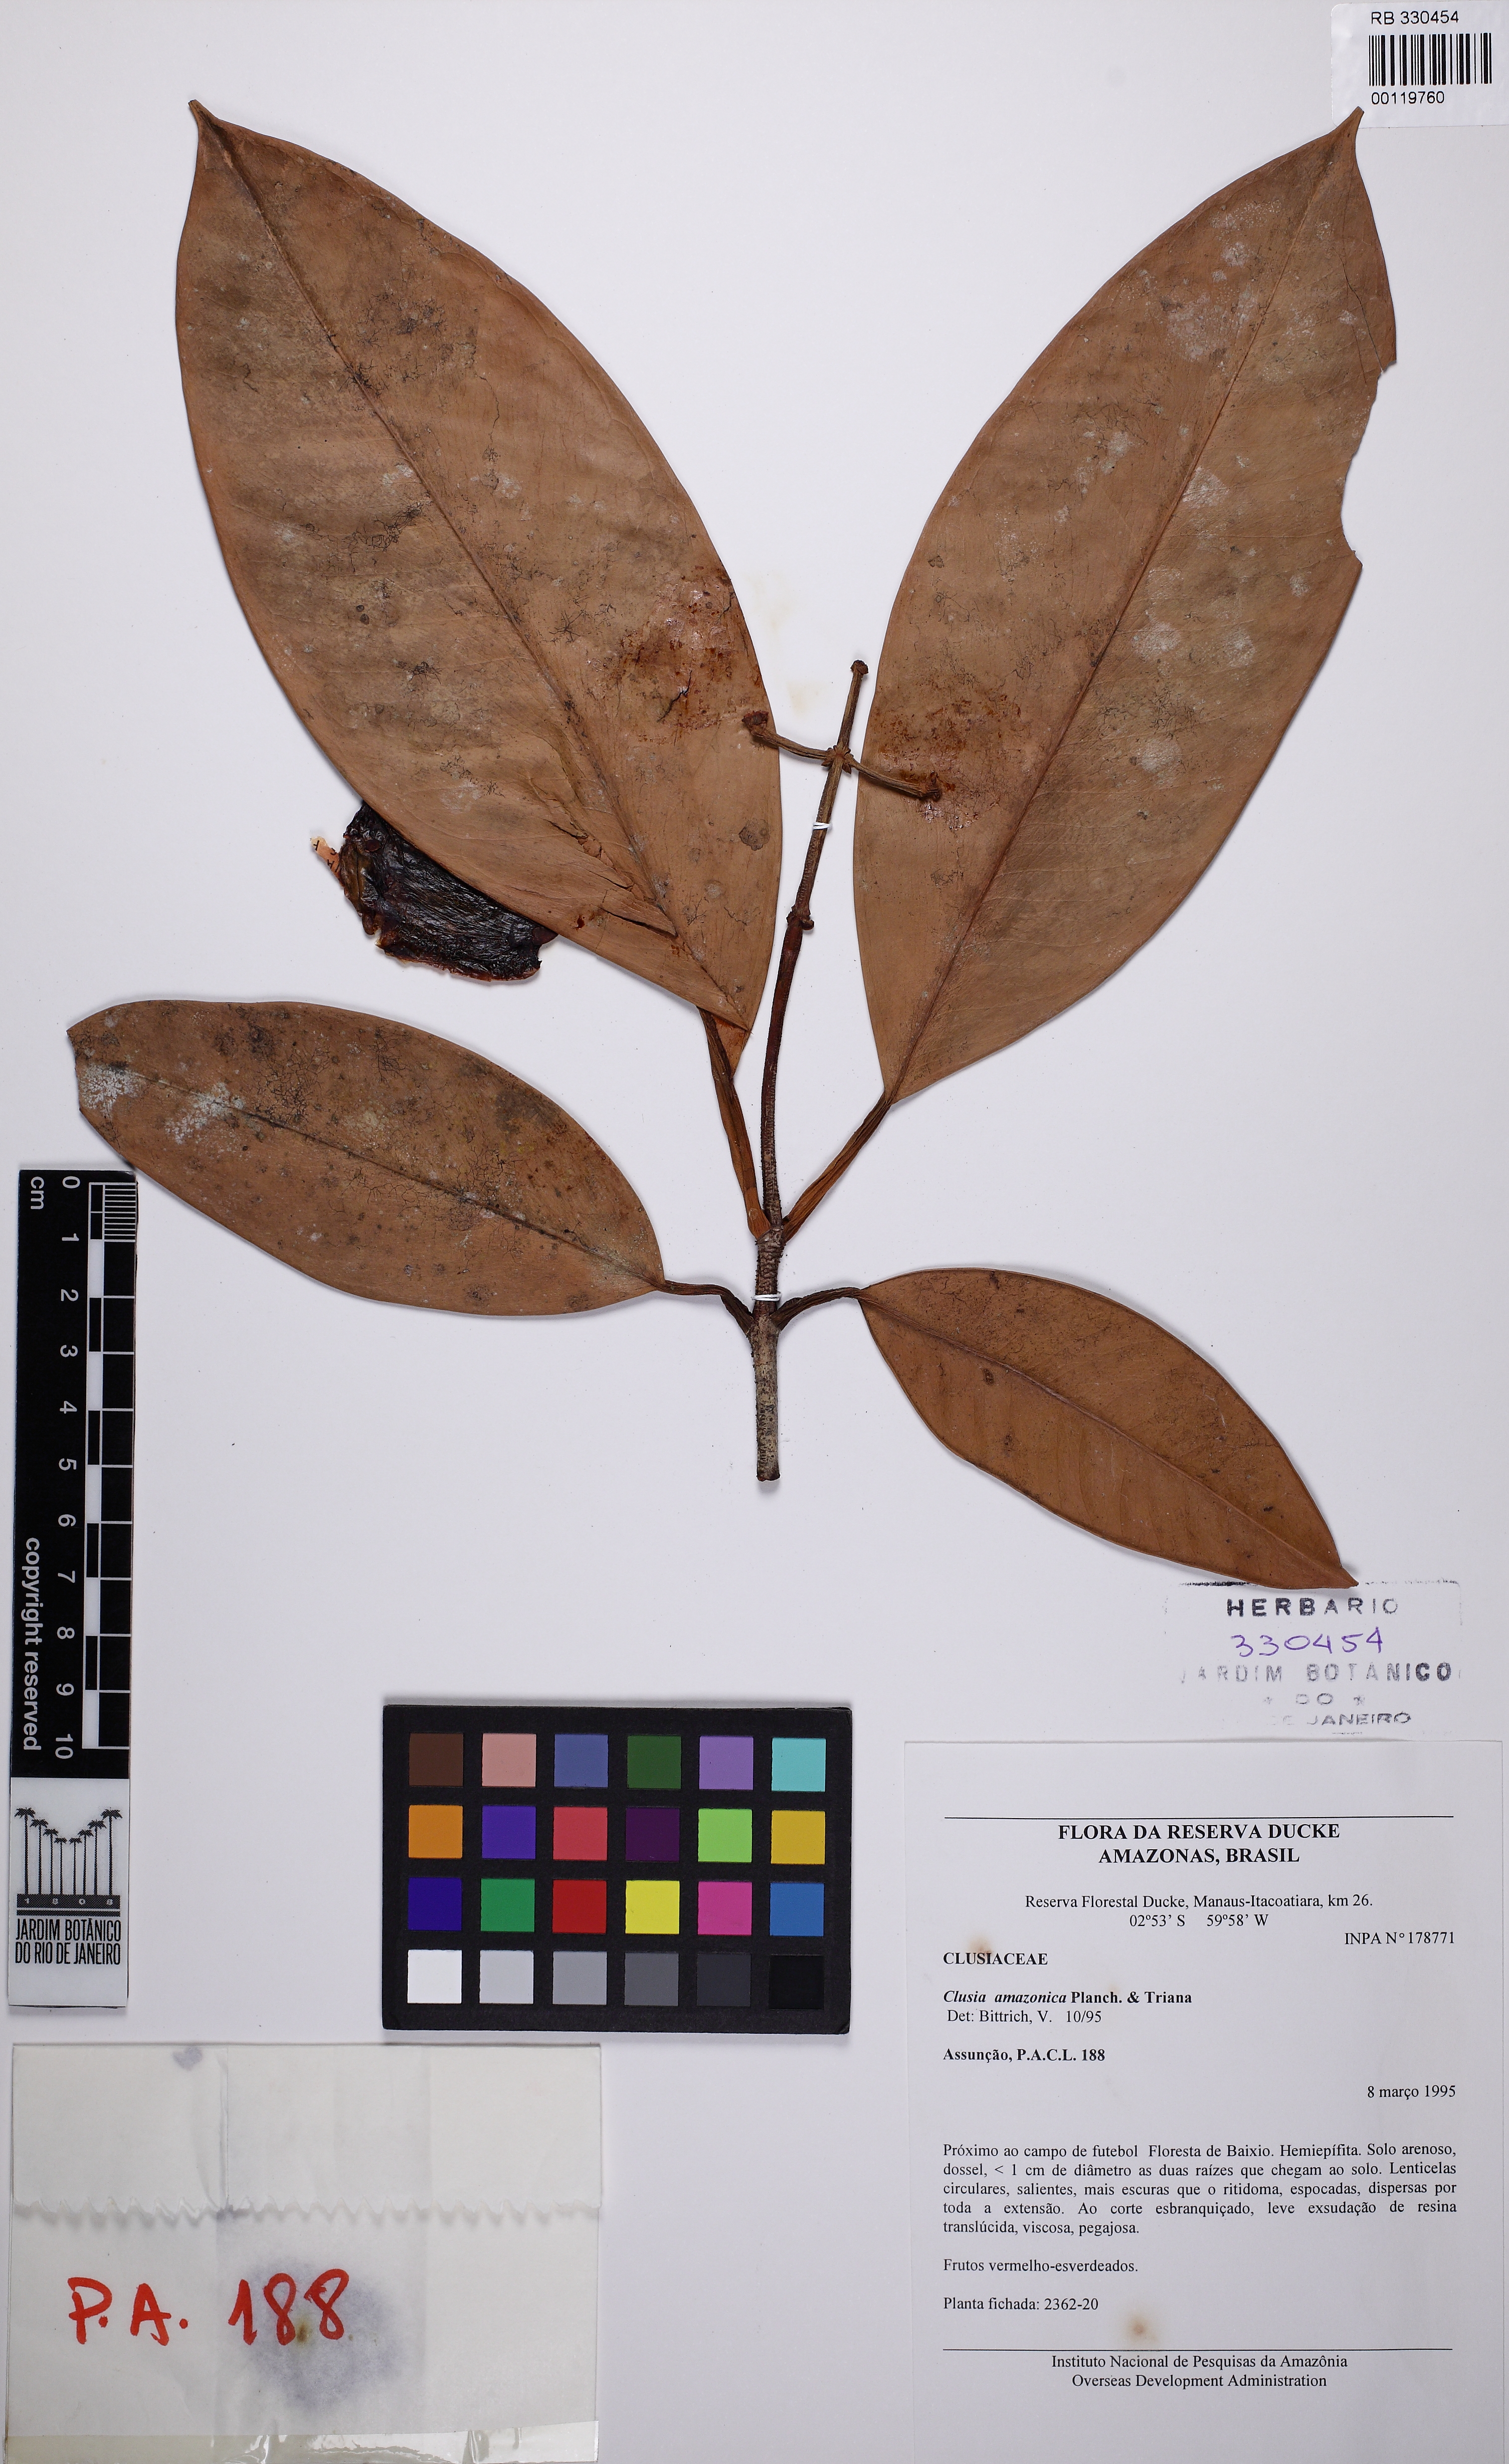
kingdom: Plantae
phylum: Tracheophyta
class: Magnoliopsida
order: Malpighiales
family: Clusiaceae
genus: Clusia
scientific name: Clusia amazonica
